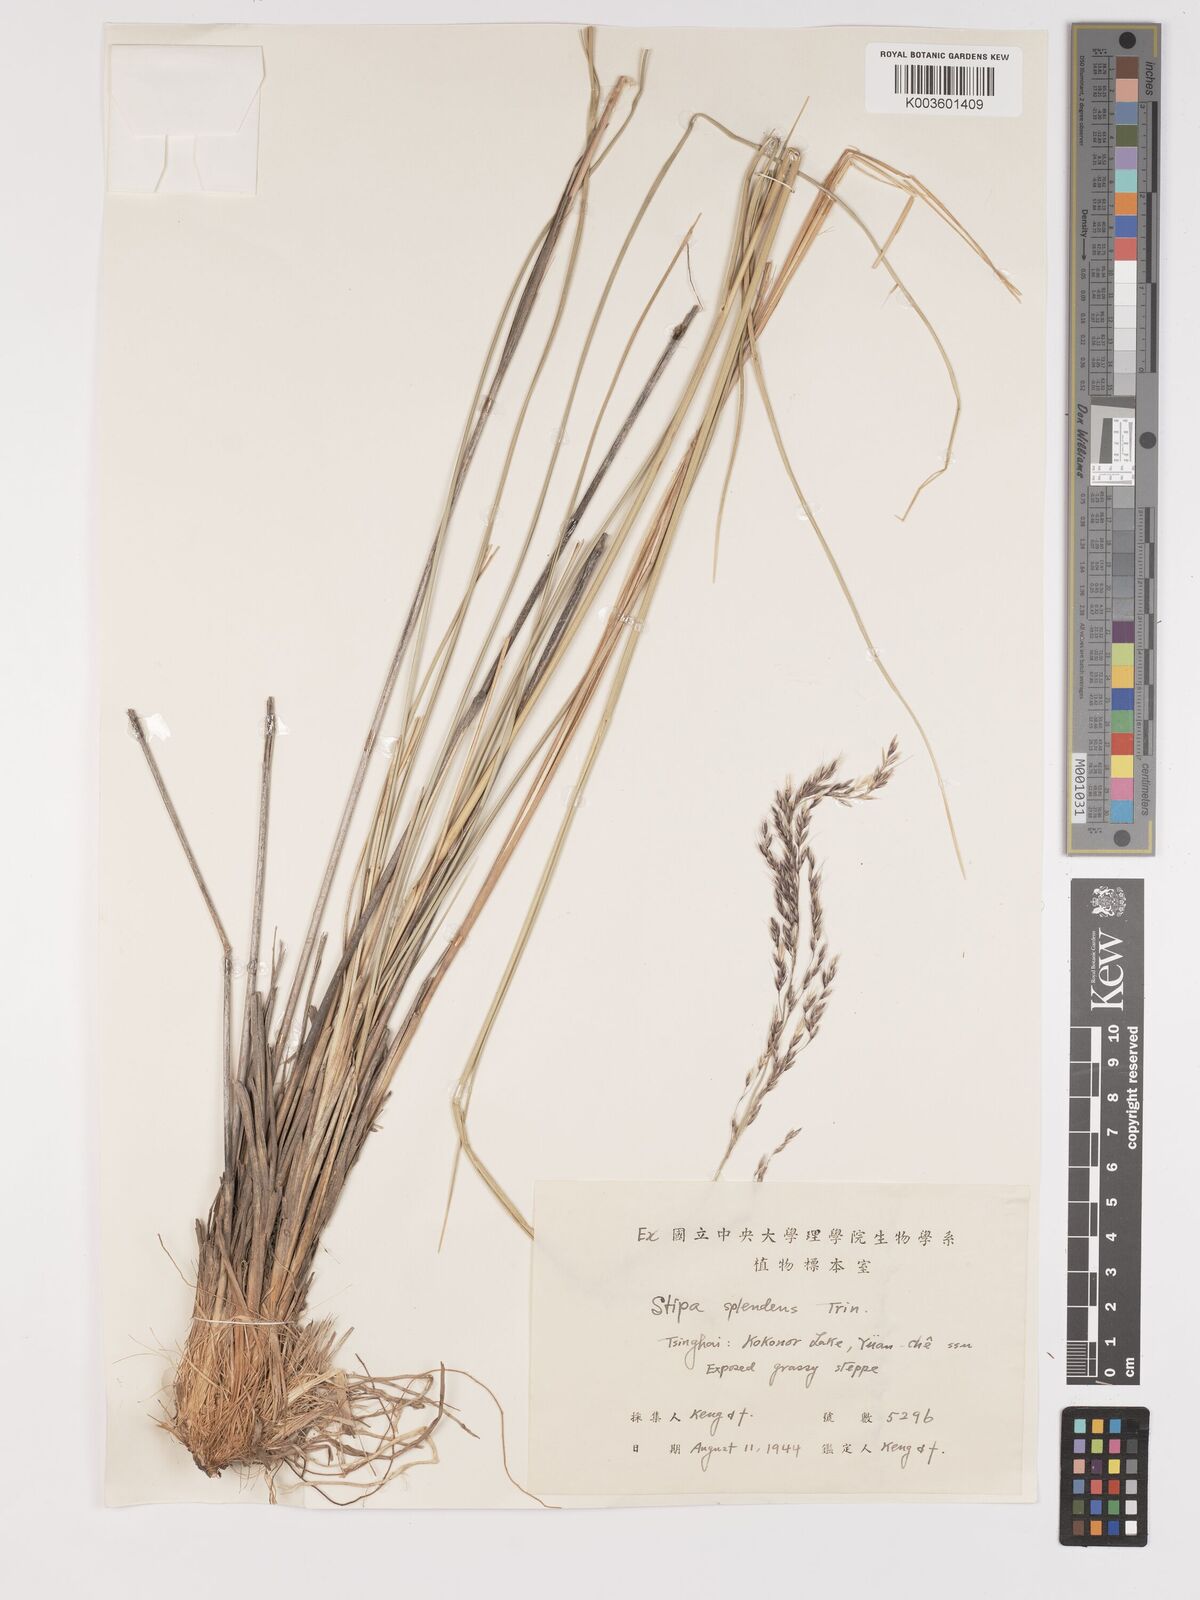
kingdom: Plantae
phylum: Tracheophyta
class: Liliopsida
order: Poales
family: Poaceae
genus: Neotrinia
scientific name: Neotrinia splendens
